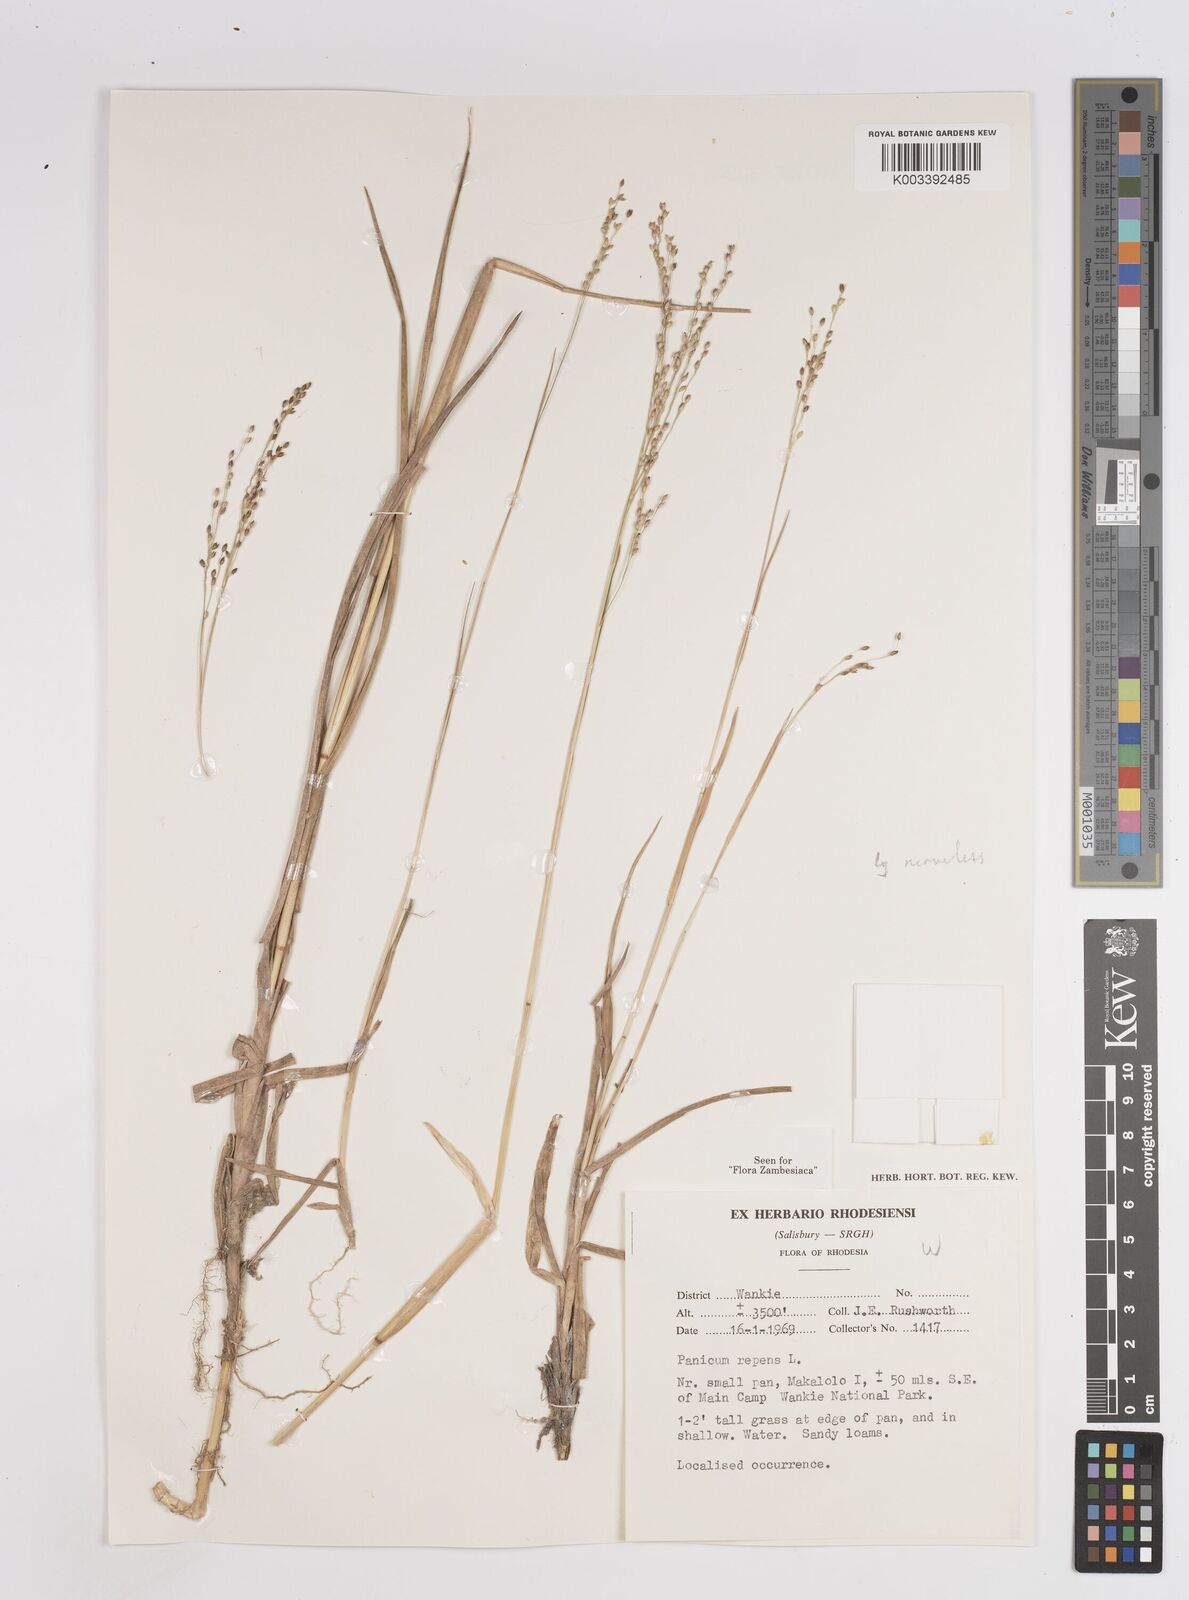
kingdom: Plantae
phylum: Tracheophyta
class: Liliopsida
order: Poales
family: Poaceae
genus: Panicum
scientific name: Panicum repens
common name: Torpedo grass
